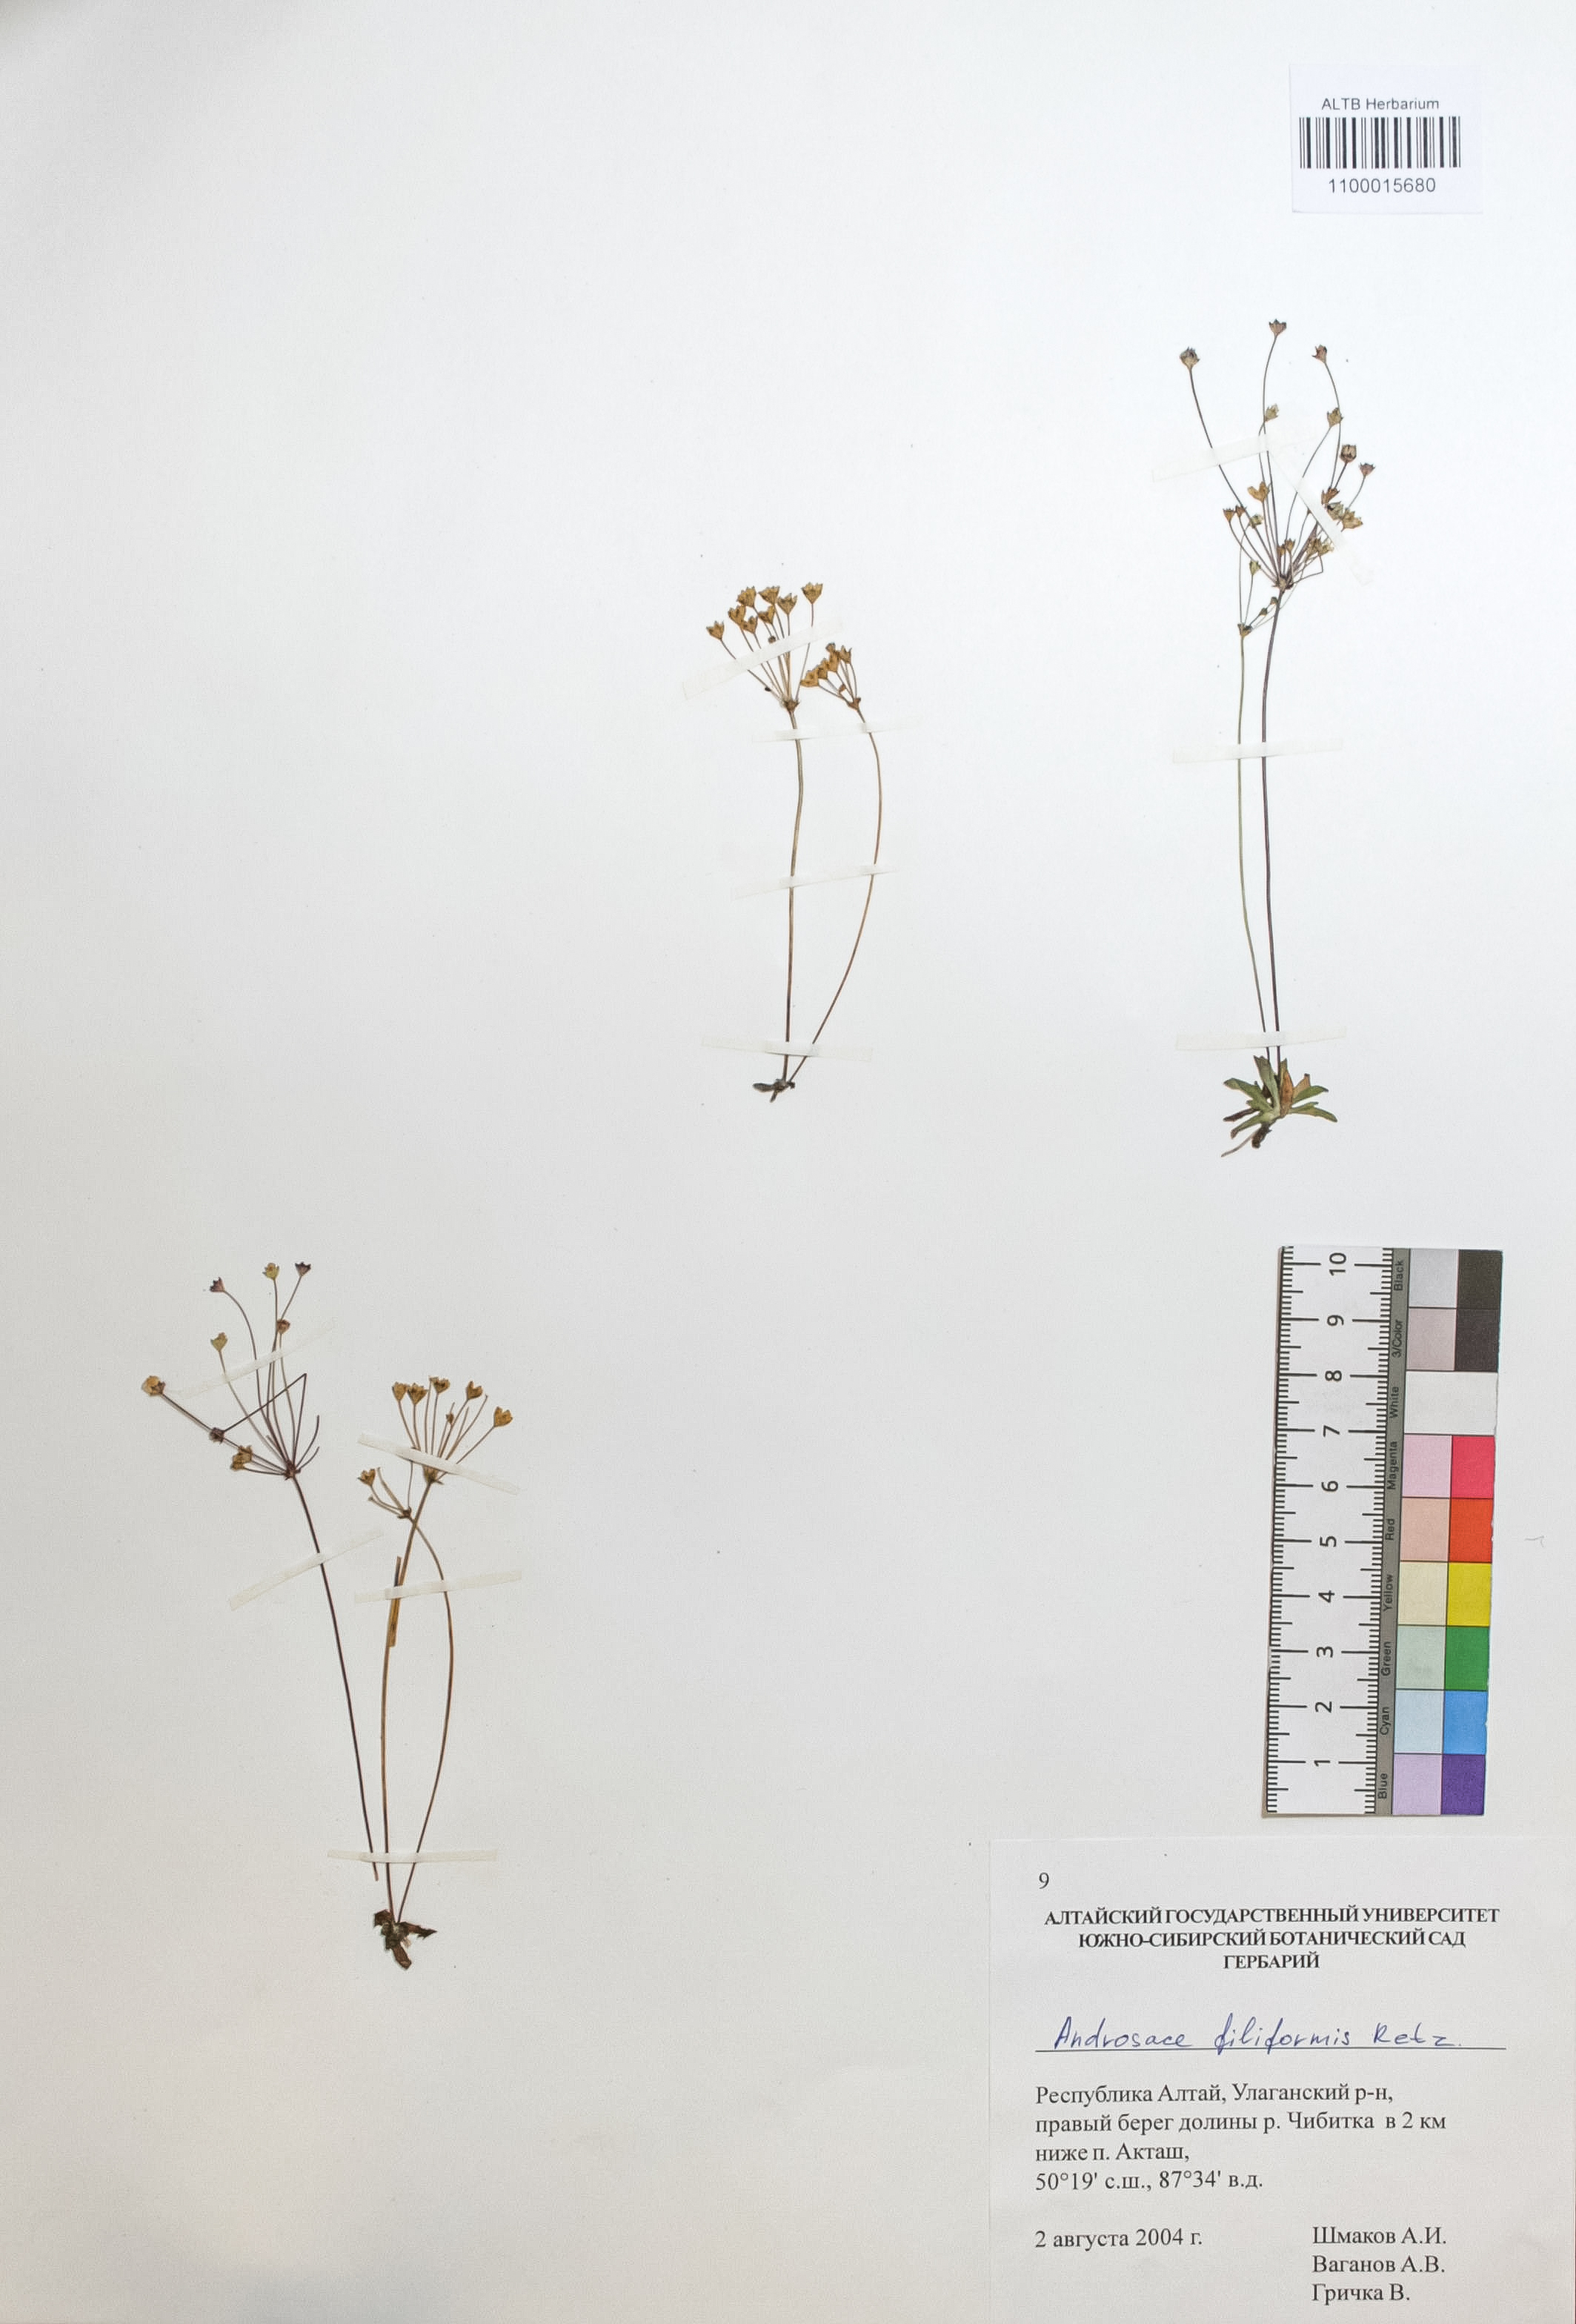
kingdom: Plantae
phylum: Tracheophyta
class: Magnoliopsida
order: Ericales
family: Primulaceae
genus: Androsace
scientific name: Androsace filiformis
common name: Filiform rock jasmine
